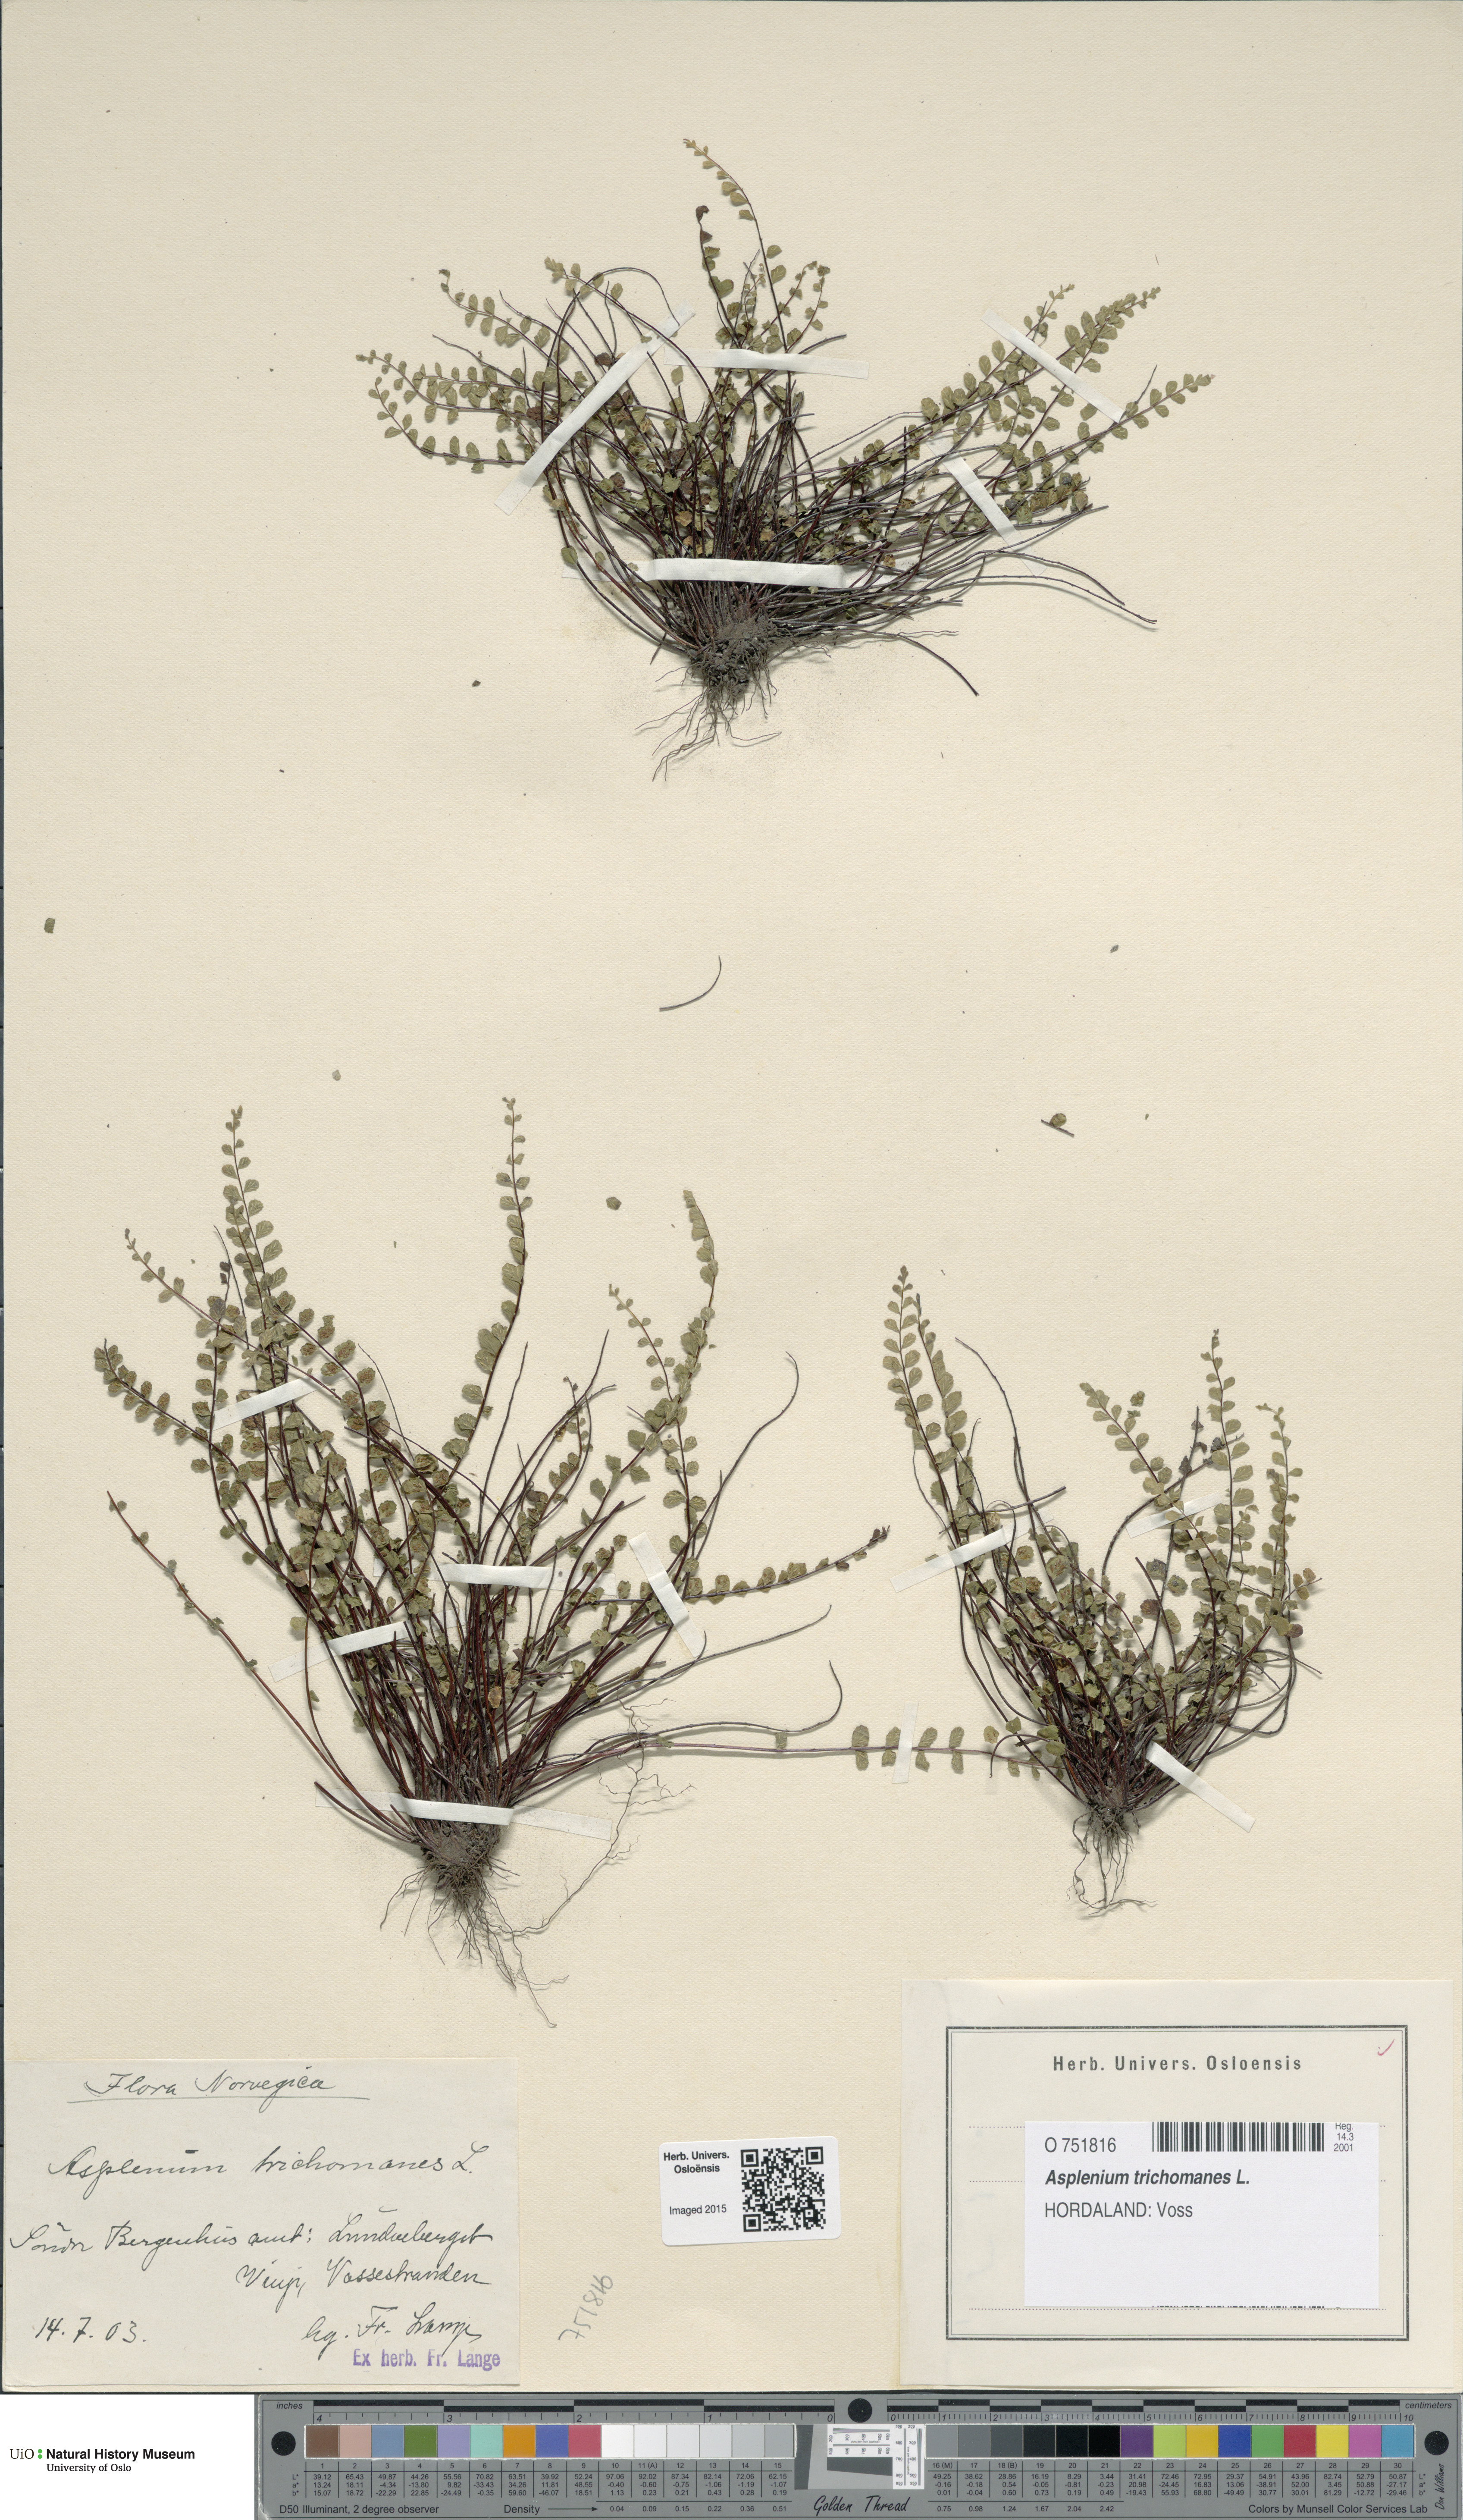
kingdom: Plantae
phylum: Tracheophyta
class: Polypodiopsida
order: Polypodiales
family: Aspleniaceae
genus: Asplenium
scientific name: Asplenium trichomanes
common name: Maidenhair spleenwort
